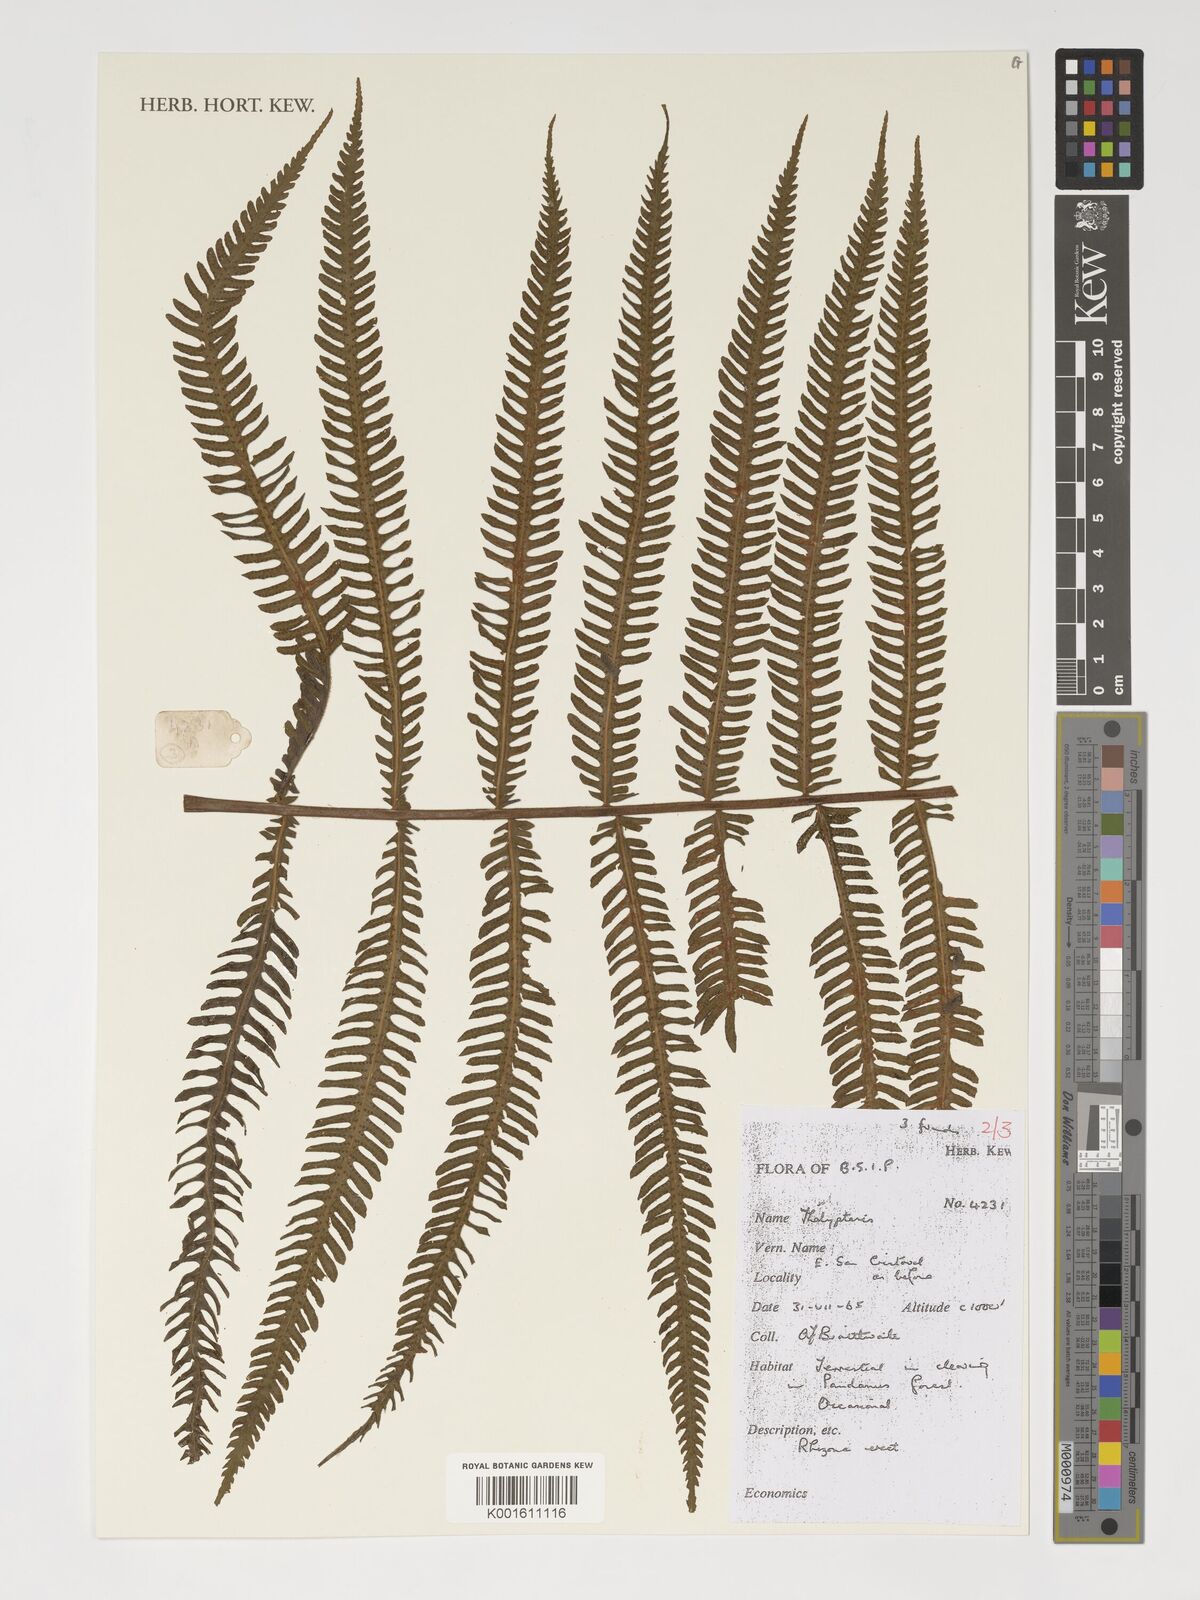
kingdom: Plantae
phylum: Tracheophyta
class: Polypodiopsida
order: Polypodiales
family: Thelypteridaceae
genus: Thelypteris
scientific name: Thelypteris
